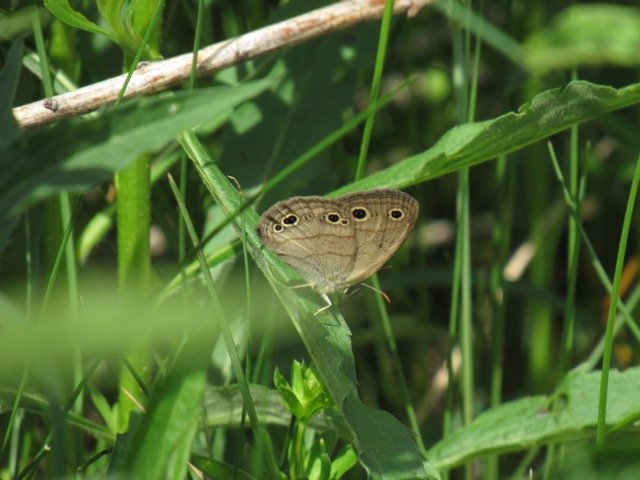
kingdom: Animalia
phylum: Arthropoda
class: Insecta
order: Lepidoptera
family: Nymphalidae
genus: Euptychia
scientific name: Euptychia cymela
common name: Little Wood Satyr
